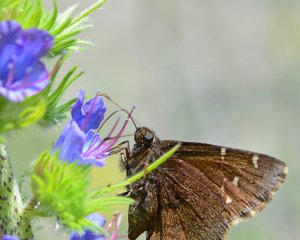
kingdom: Animalia
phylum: Arthropoda
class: Insecta
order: Lepidoptera
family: Hesperiidae
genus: Autochton
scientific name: Autochton
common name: Northern Cloudywing
